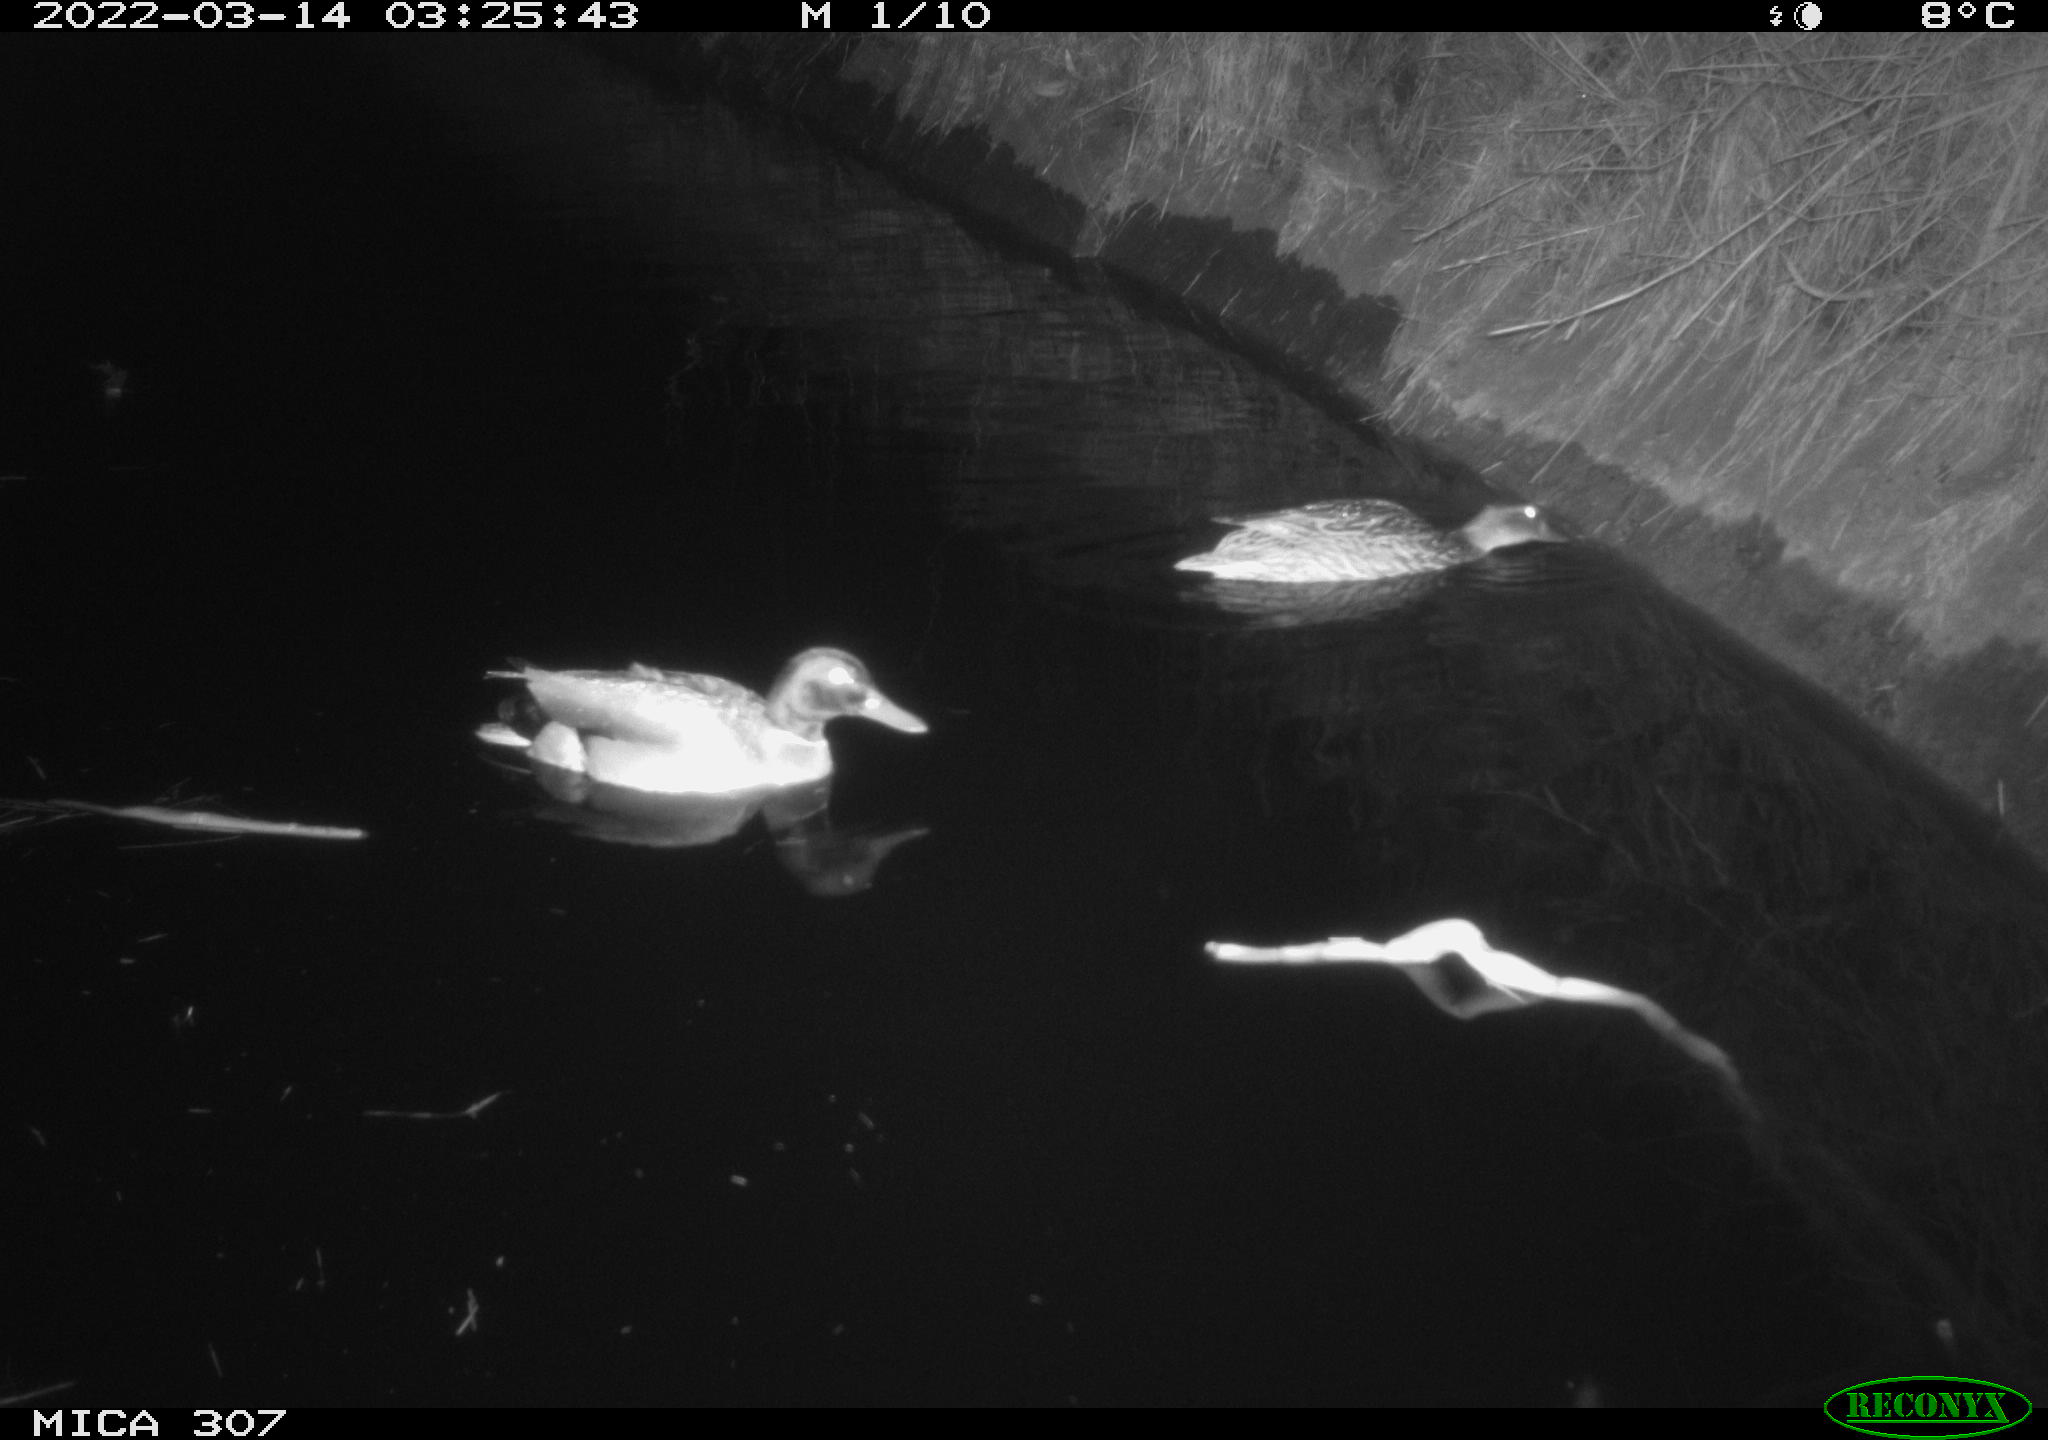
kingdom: Animalia
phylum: Chordata
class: Aves
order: Anseriformes
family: Anatidae
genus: Anas
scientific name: Anas platyrhynchos
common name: Mallard
